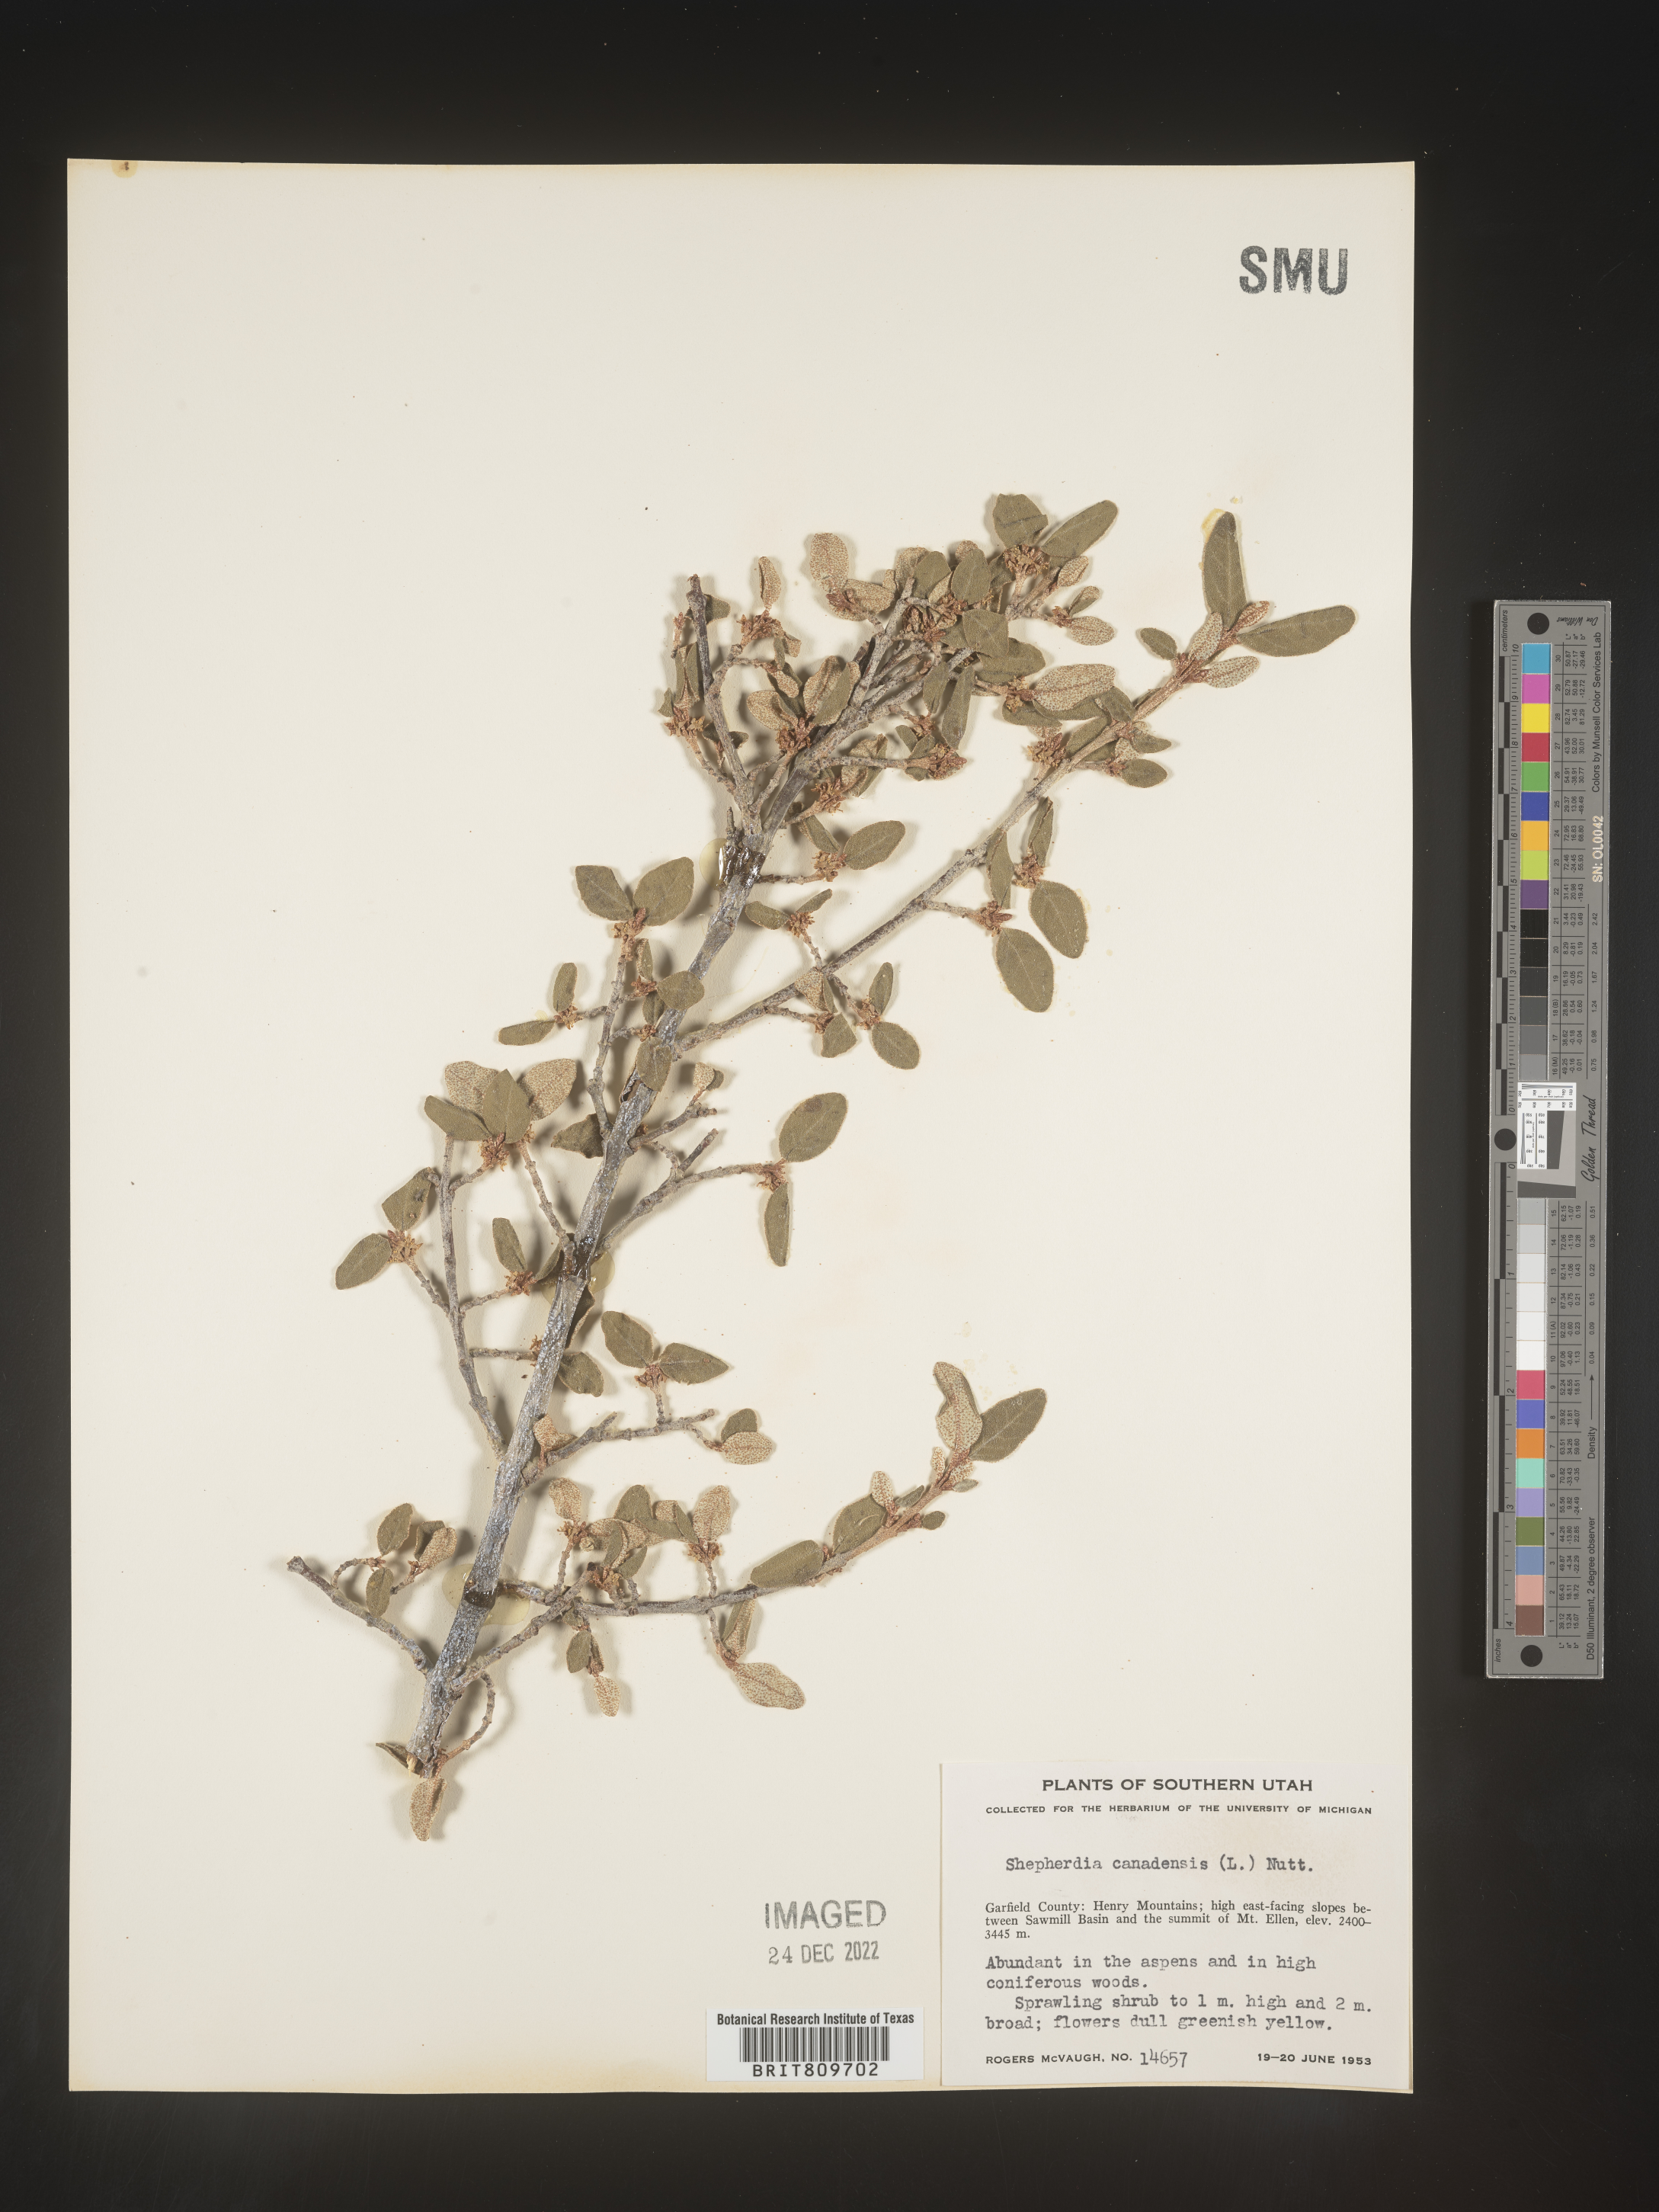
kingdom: Plantae
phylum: Tracheophyta
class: Magnoliopsida
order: Rosales
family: Elaeagnaceae
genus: Shepherdia
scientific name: Shepherdia canadensis
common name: Soapberry
